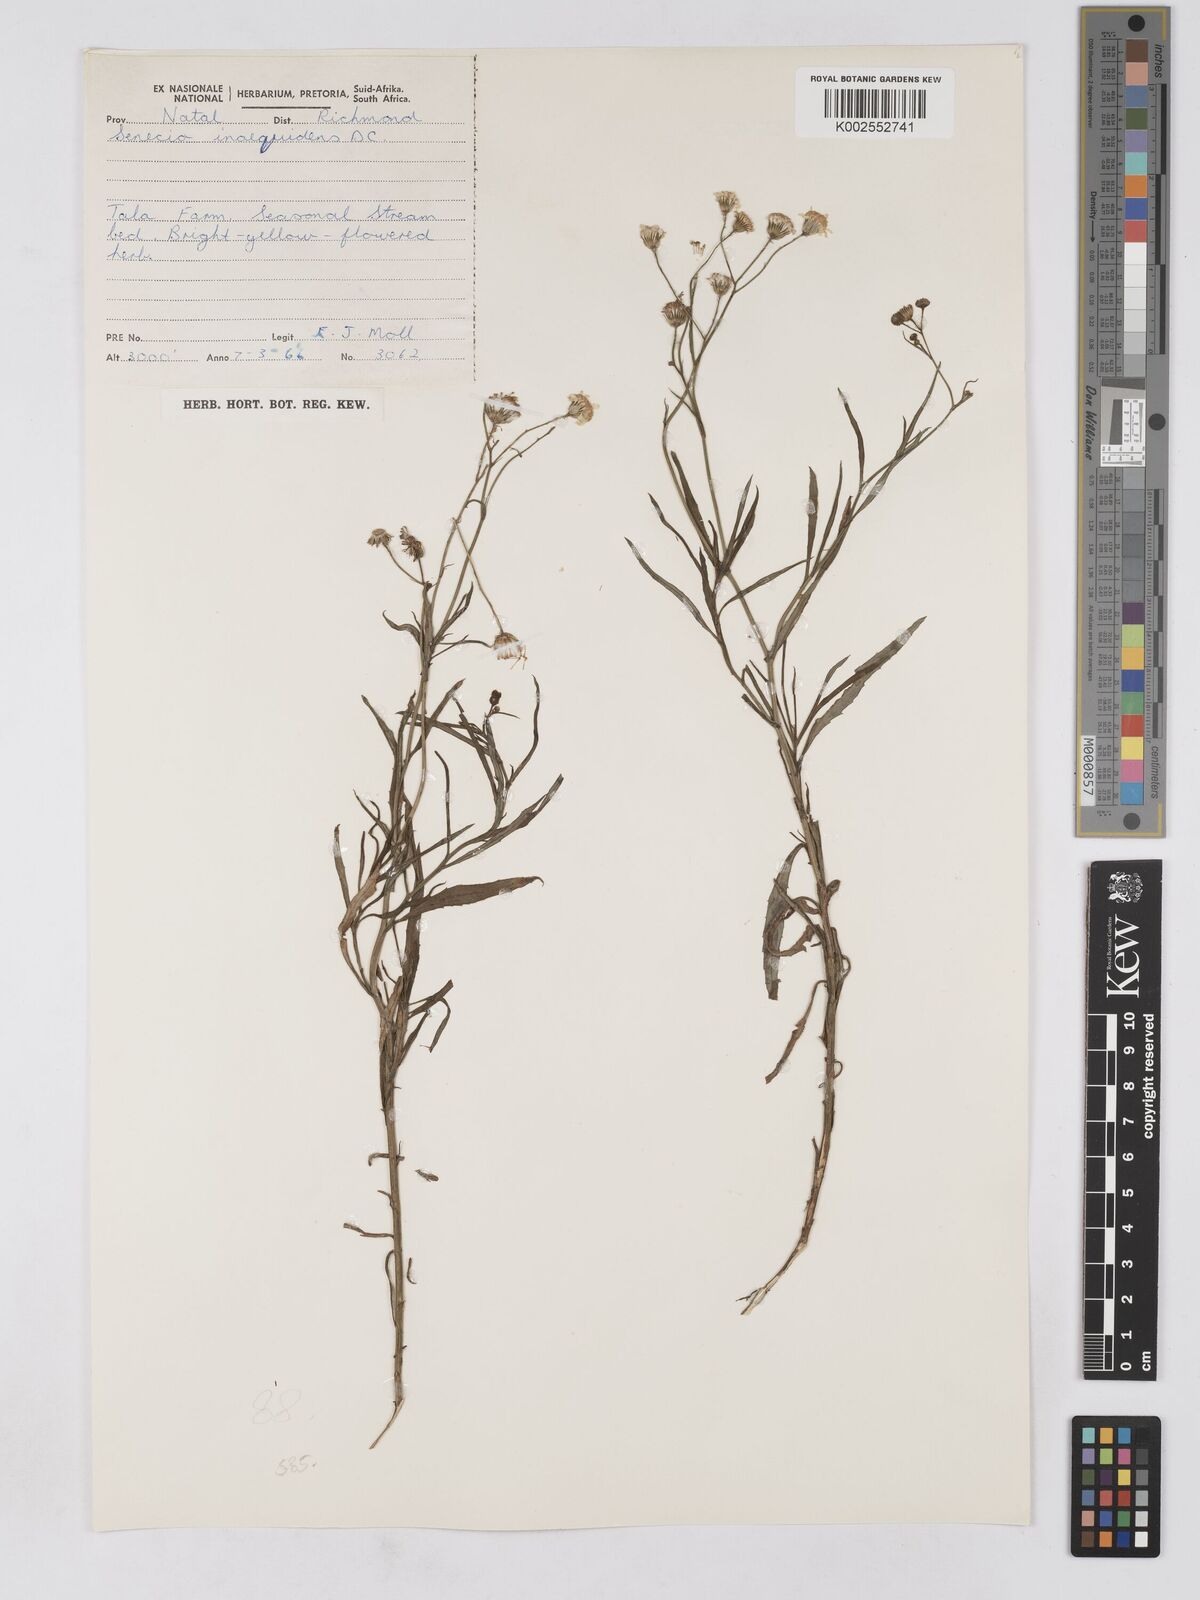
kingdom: Plantae
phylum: Tracheophyta
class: Magnoliopsida
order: Asterales
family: Asteraceae
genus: Senecio
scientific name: Senecio madagascariensis
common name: Madagascar ragwort
